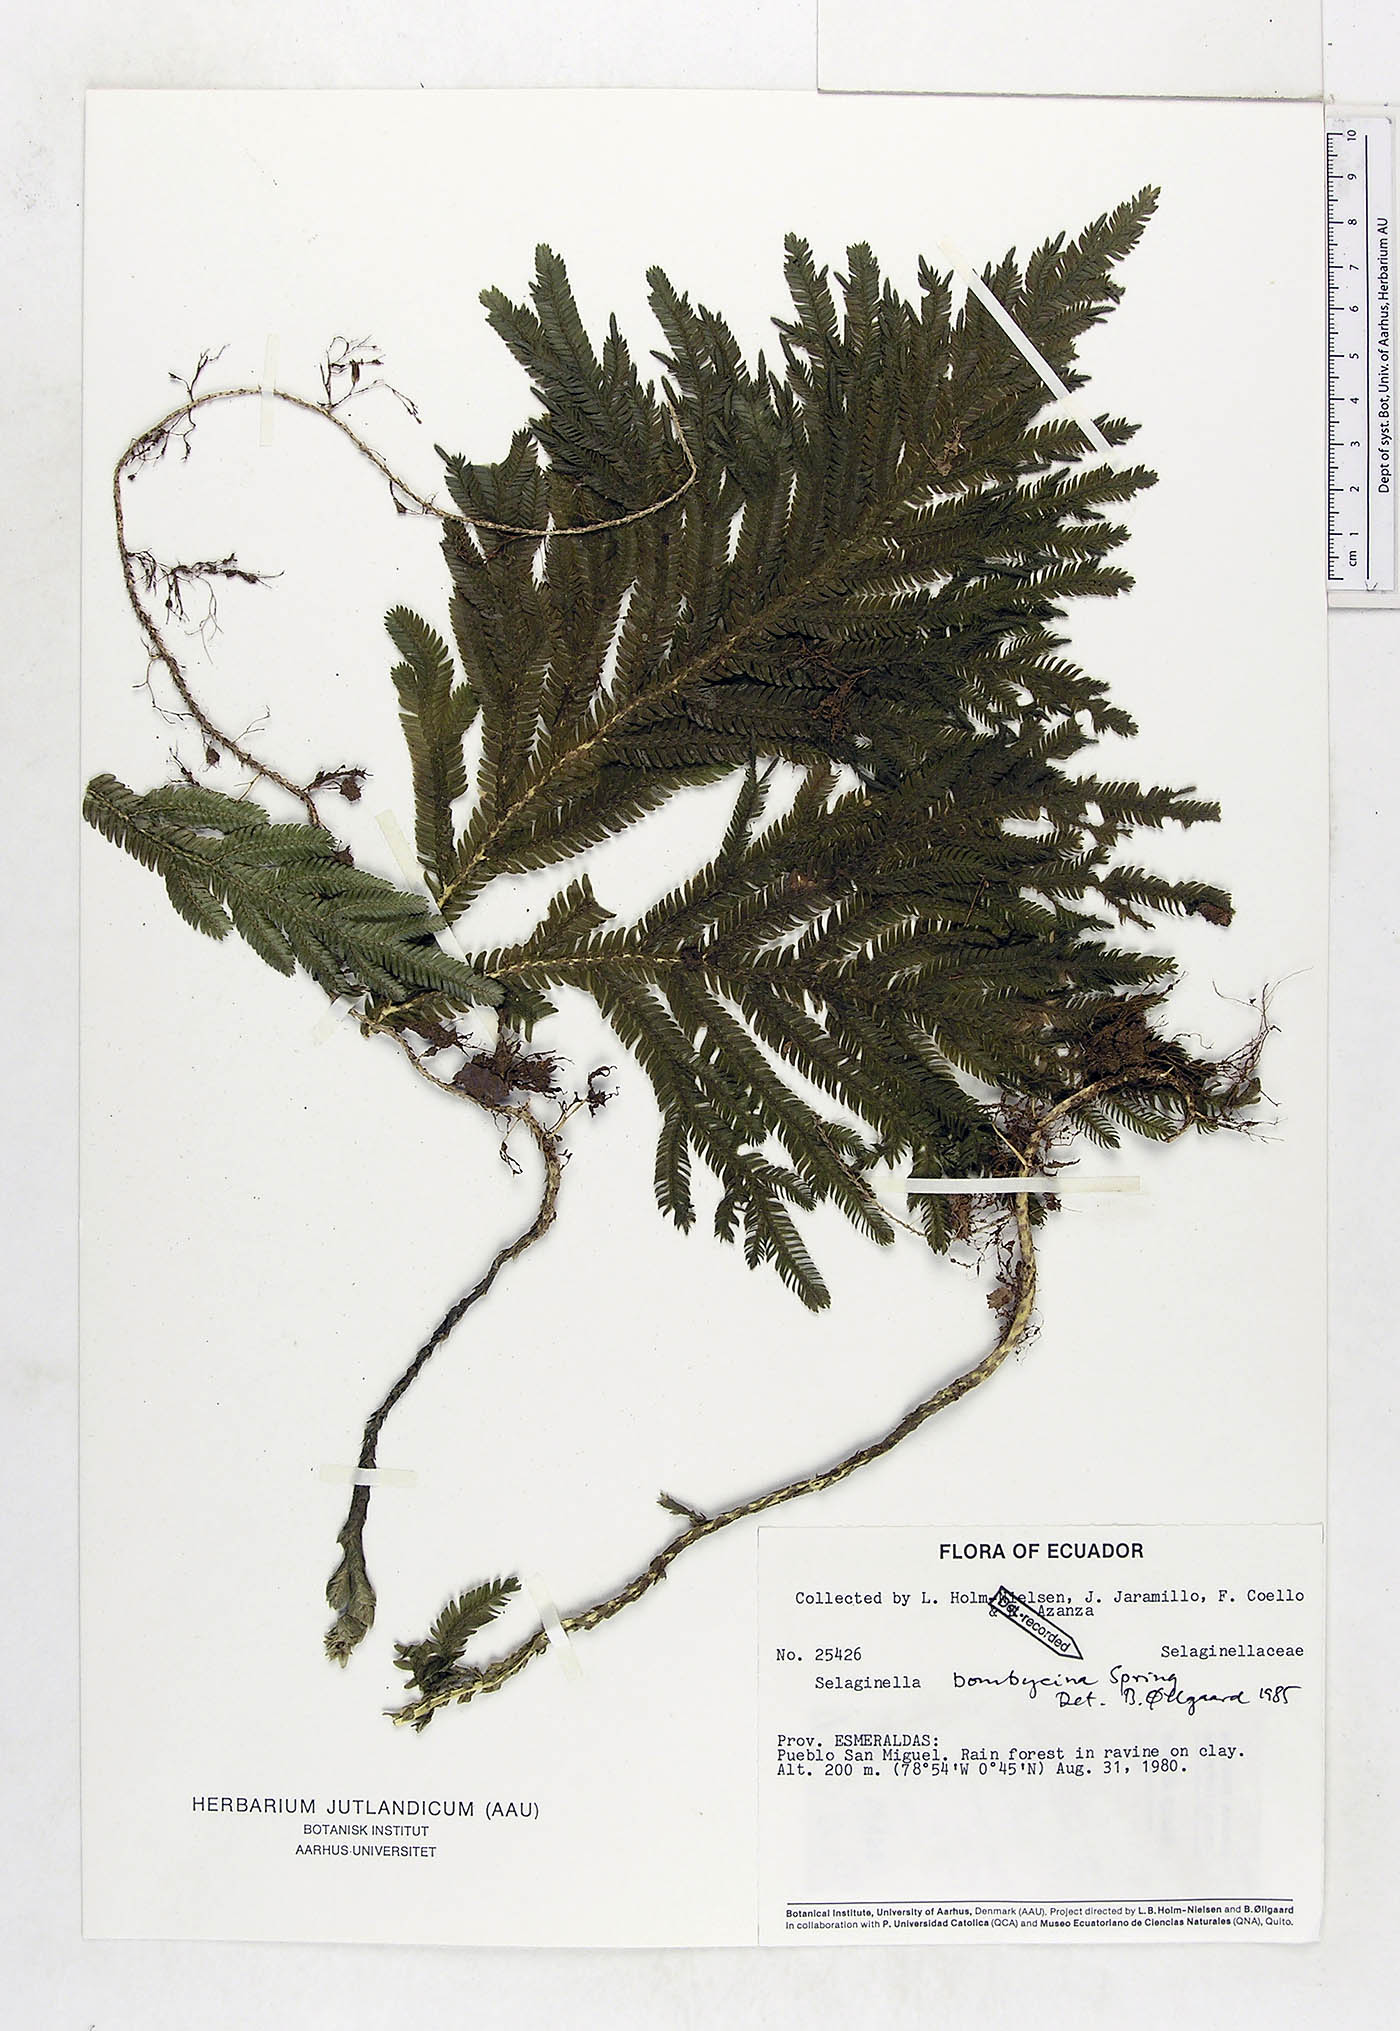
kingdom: Plantae
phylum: Tracheophyta
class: Lycopodiopsida
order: Selaginellales
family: Selaginellaceae
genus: Selaginella
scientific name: Selaginella bombycina
